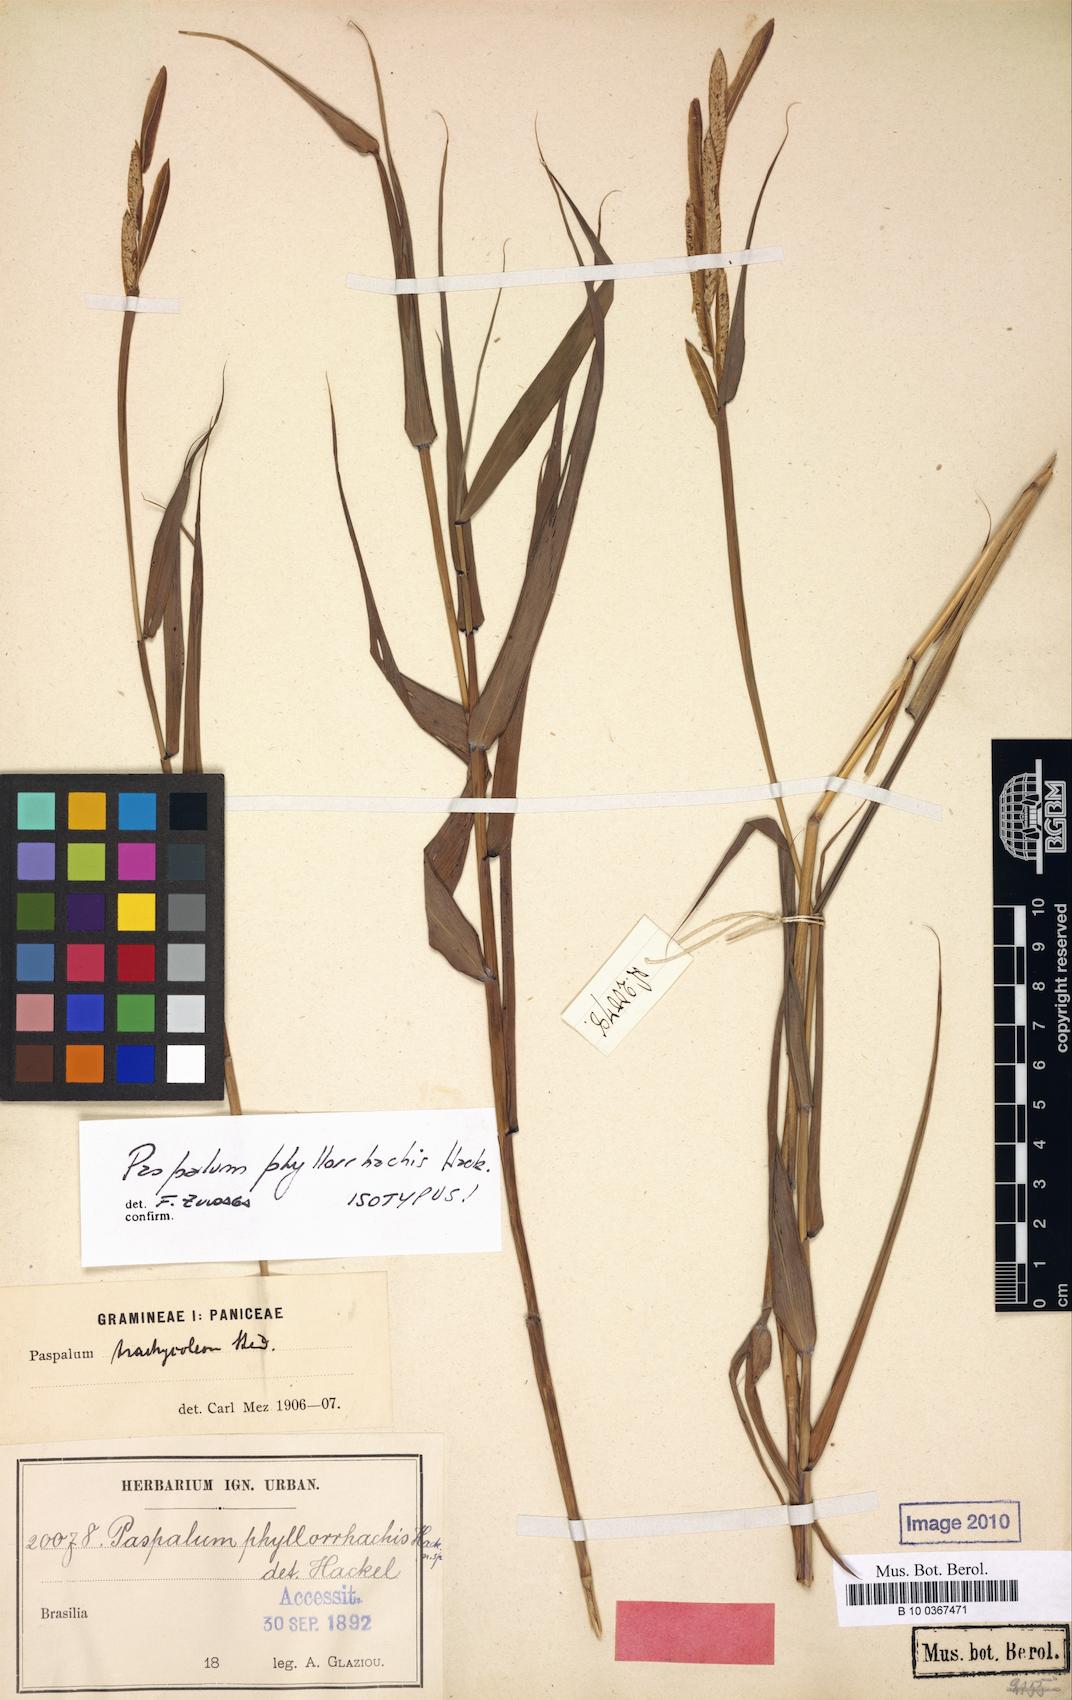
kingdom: Plantae
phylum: Tracheophyta
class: Liliopsida
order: Poales
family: Poaceae
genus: Paspalum
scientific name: Paspalum phyllorhachis
